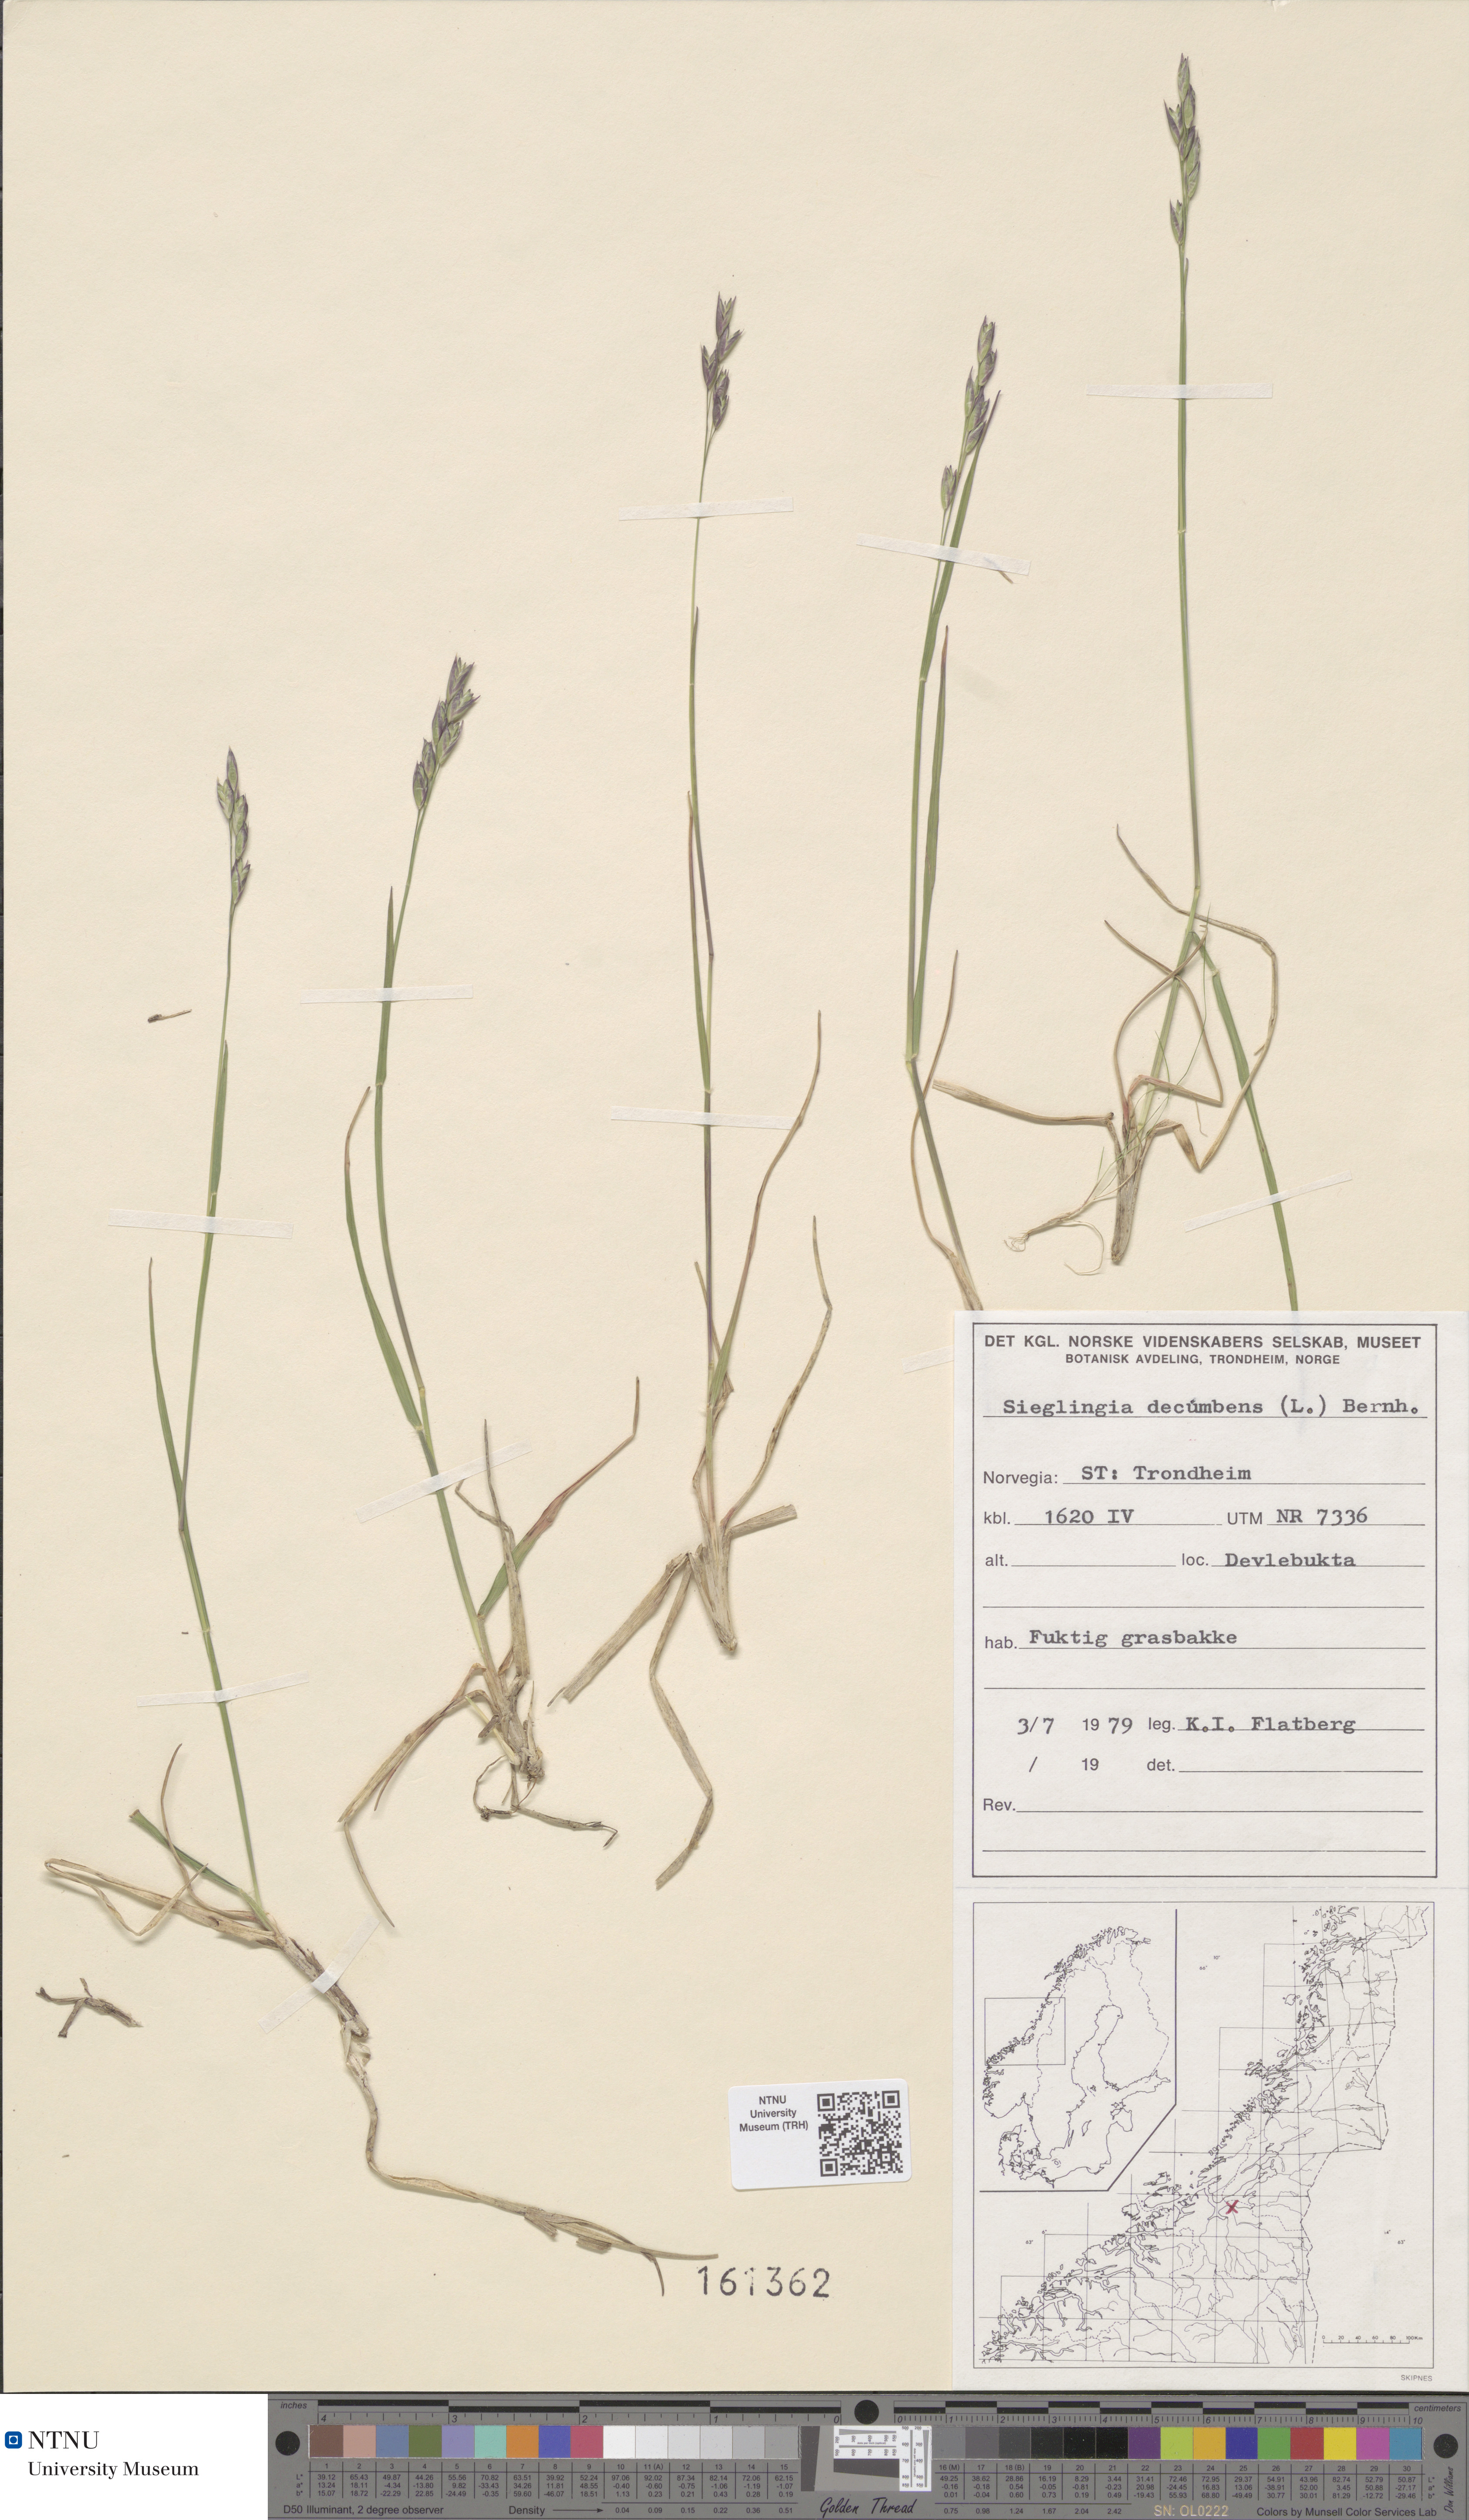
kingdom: Plantae
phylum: Tracheophyta
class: Liliopsida
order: Poales
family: Poaceae
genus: Danthonia
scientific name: Danthonia decumbens
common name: Common heathgrass
